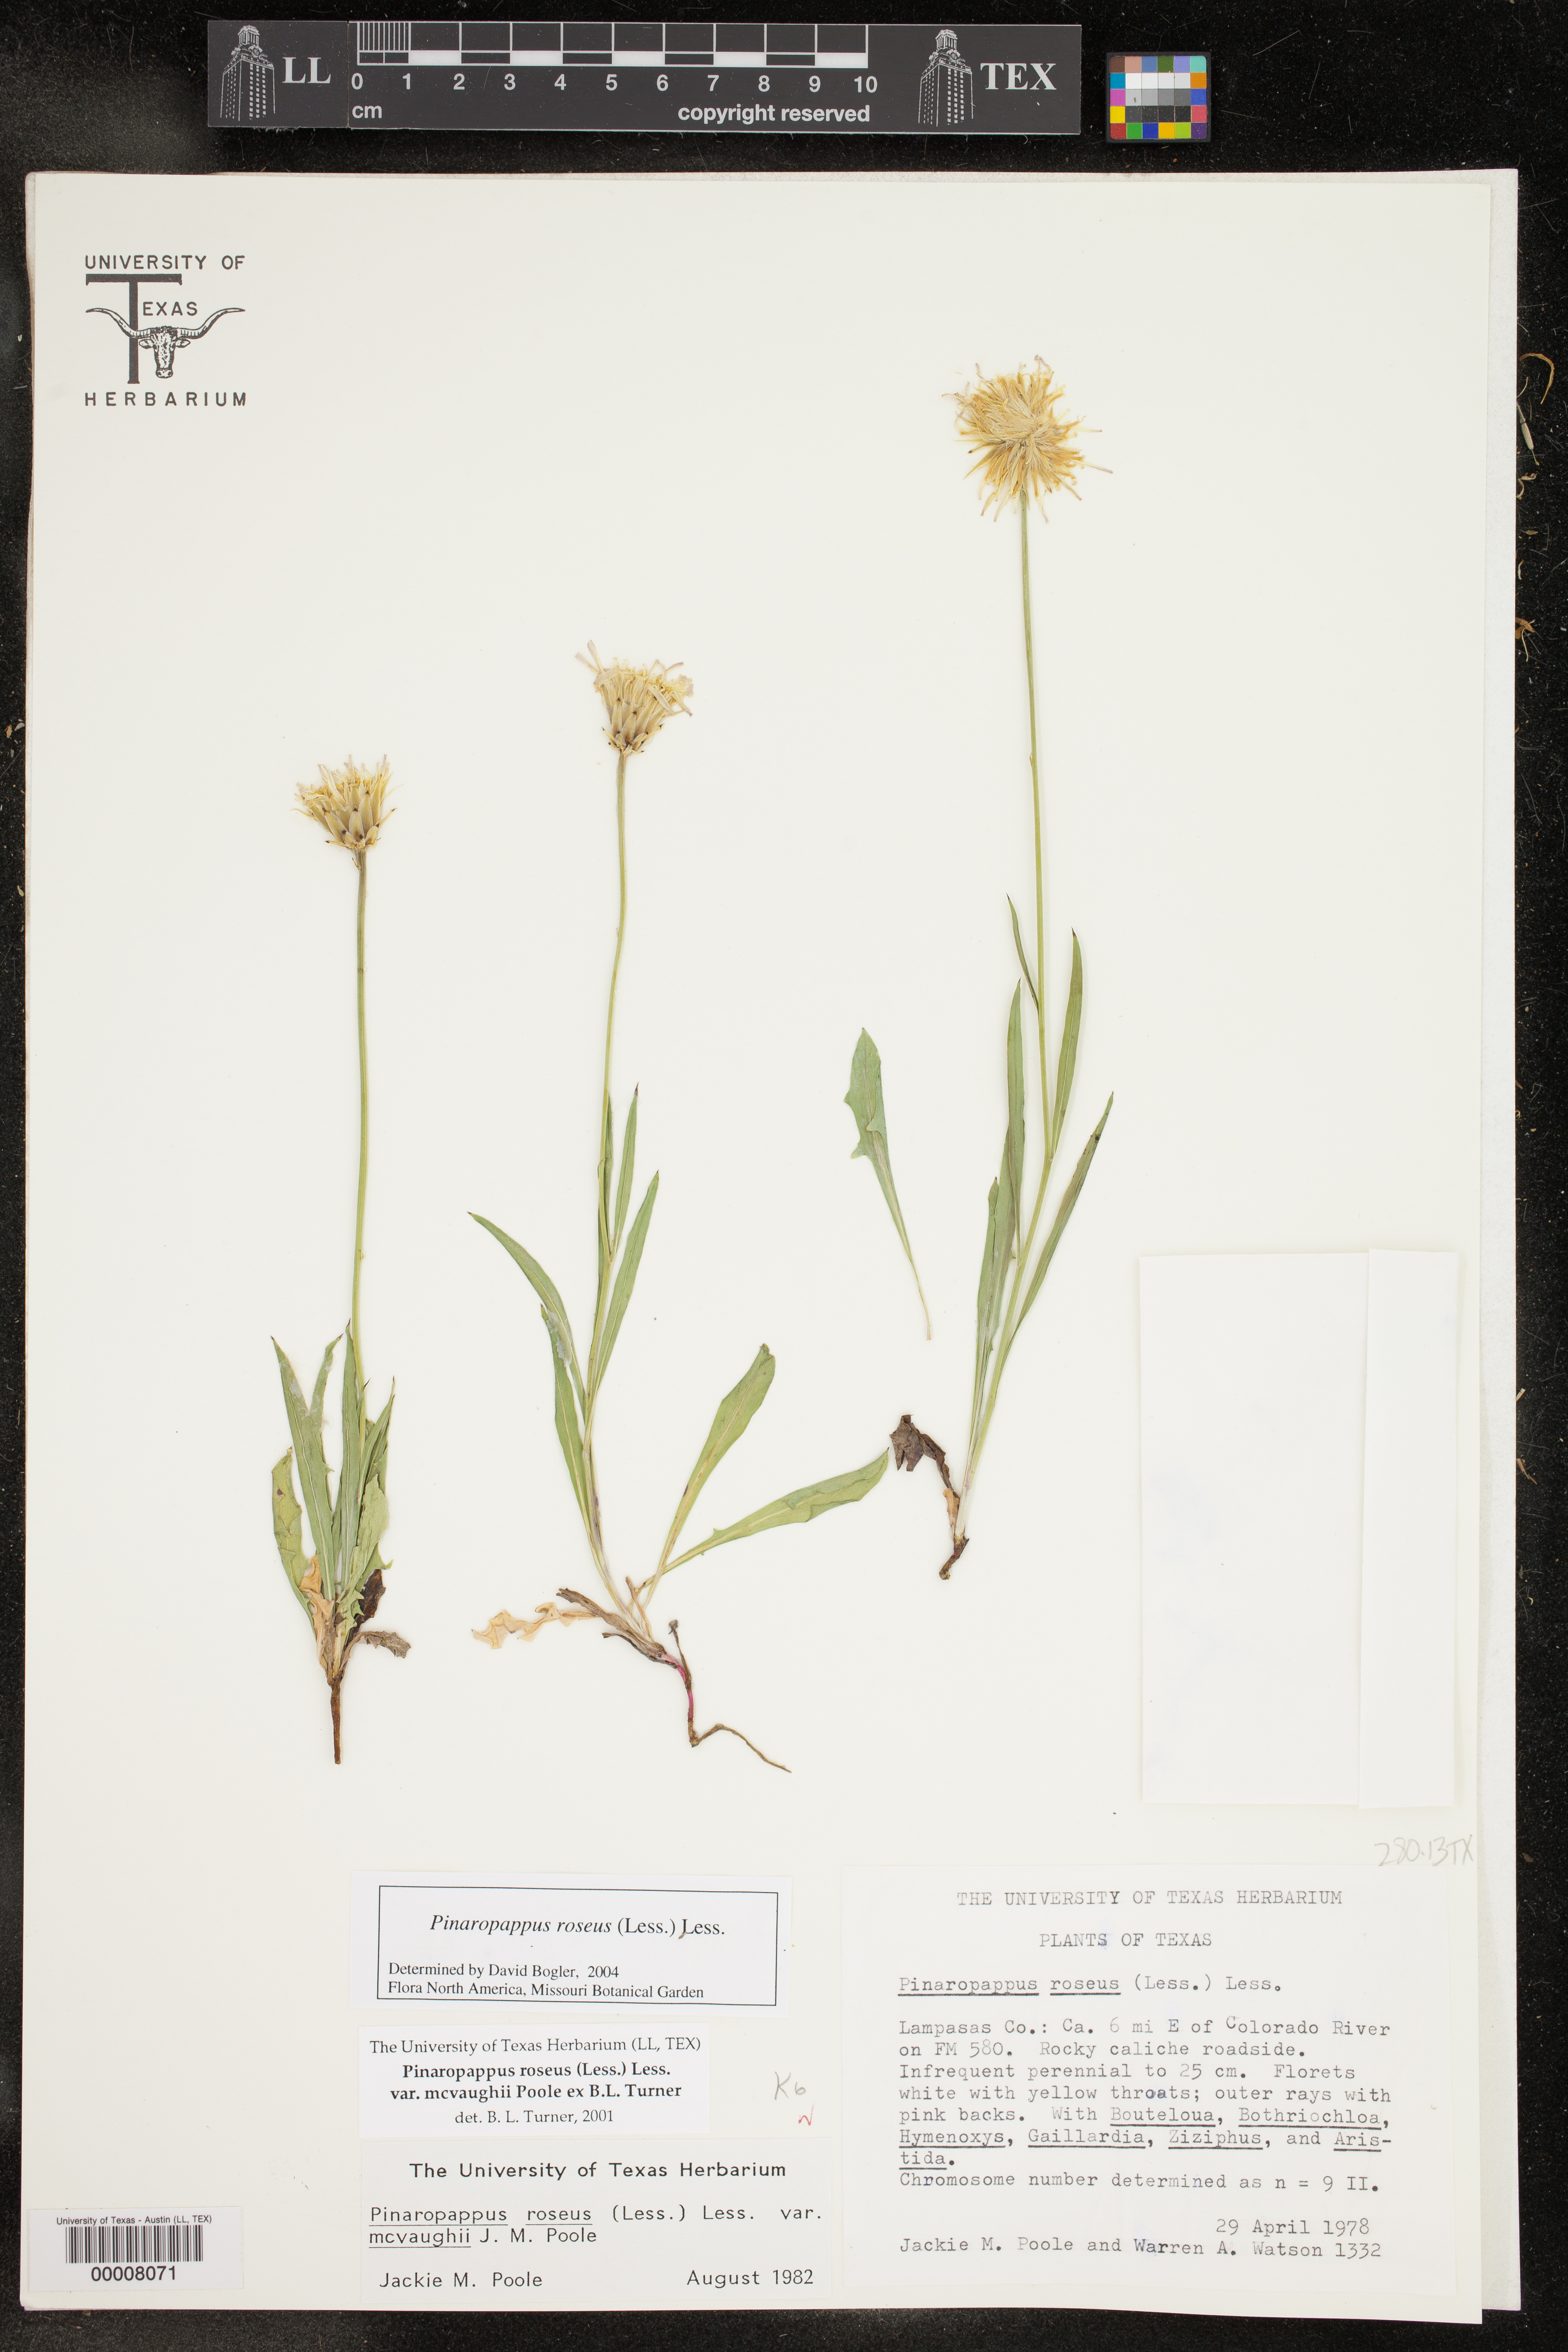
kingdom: Plantae
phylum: Tracheophyta
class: Magnoliopsida
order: Asterales
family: Asteraceae
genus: Pinaropappus
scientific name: Pinaropappus roseus
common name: Rock-lettuce
